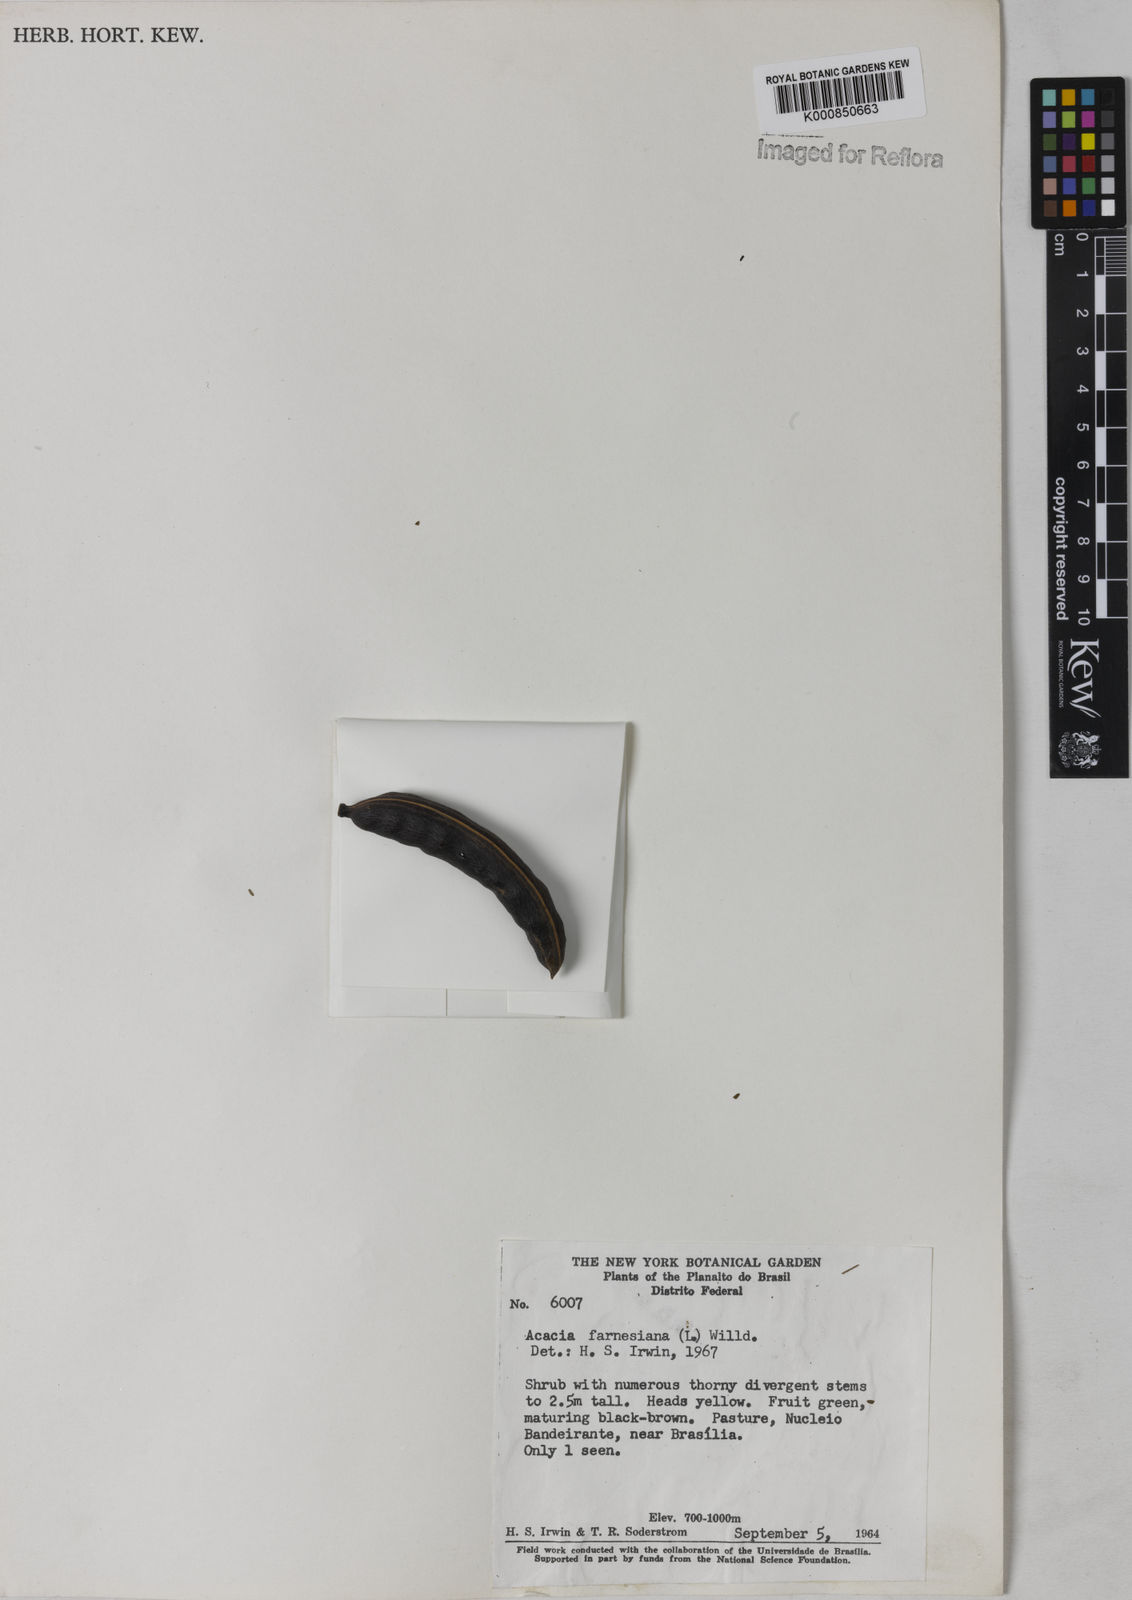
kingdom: Plantae
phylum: Tracheophyta
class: Magnoliopsida
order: Fabales
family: Fabaceae
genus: Vachellia
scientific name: Vachellia farnesiana
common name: Sweet acacia
